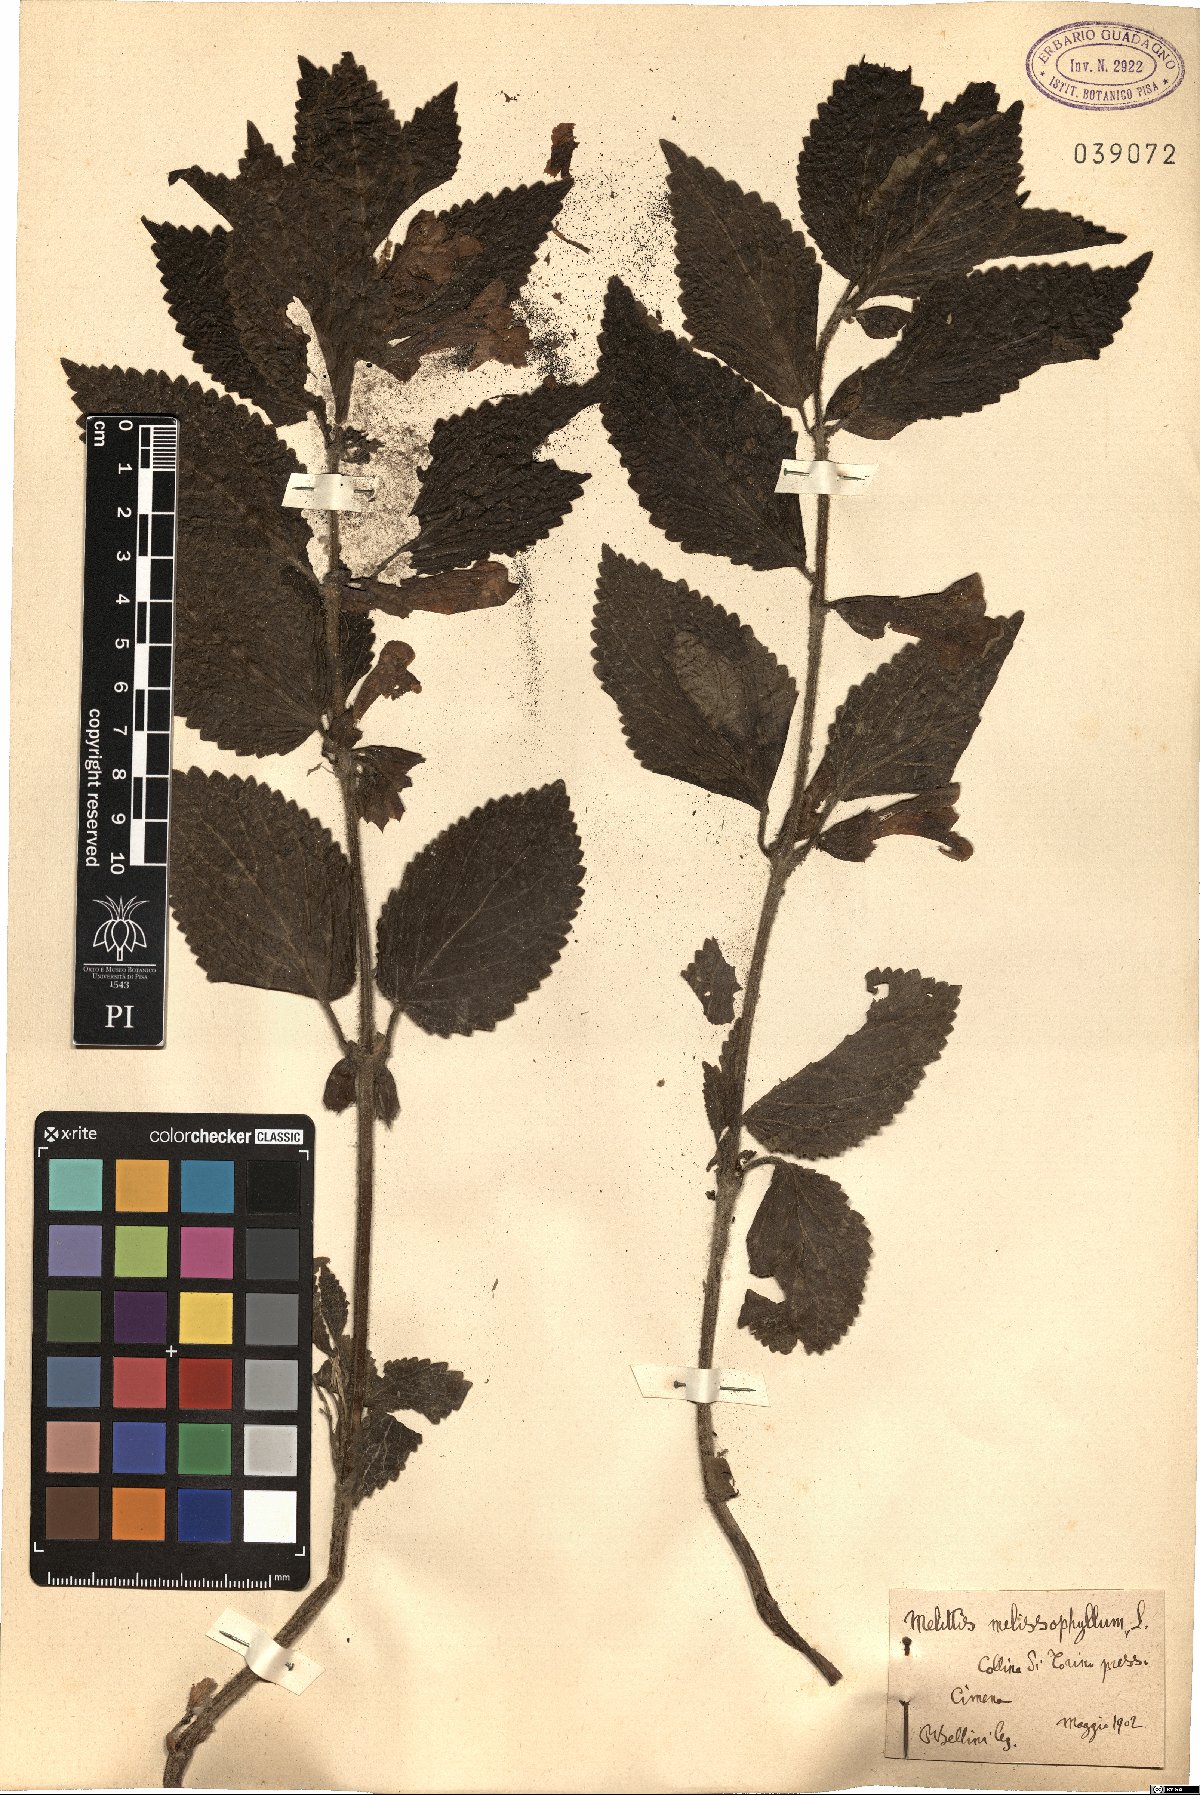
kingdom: Plantae
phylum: Tracheophyta
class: Magnoliopsida
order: Lamiales
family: Lamiaceae
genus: Melittis
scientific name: Melittis melissophyllum
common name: Bastard balm
